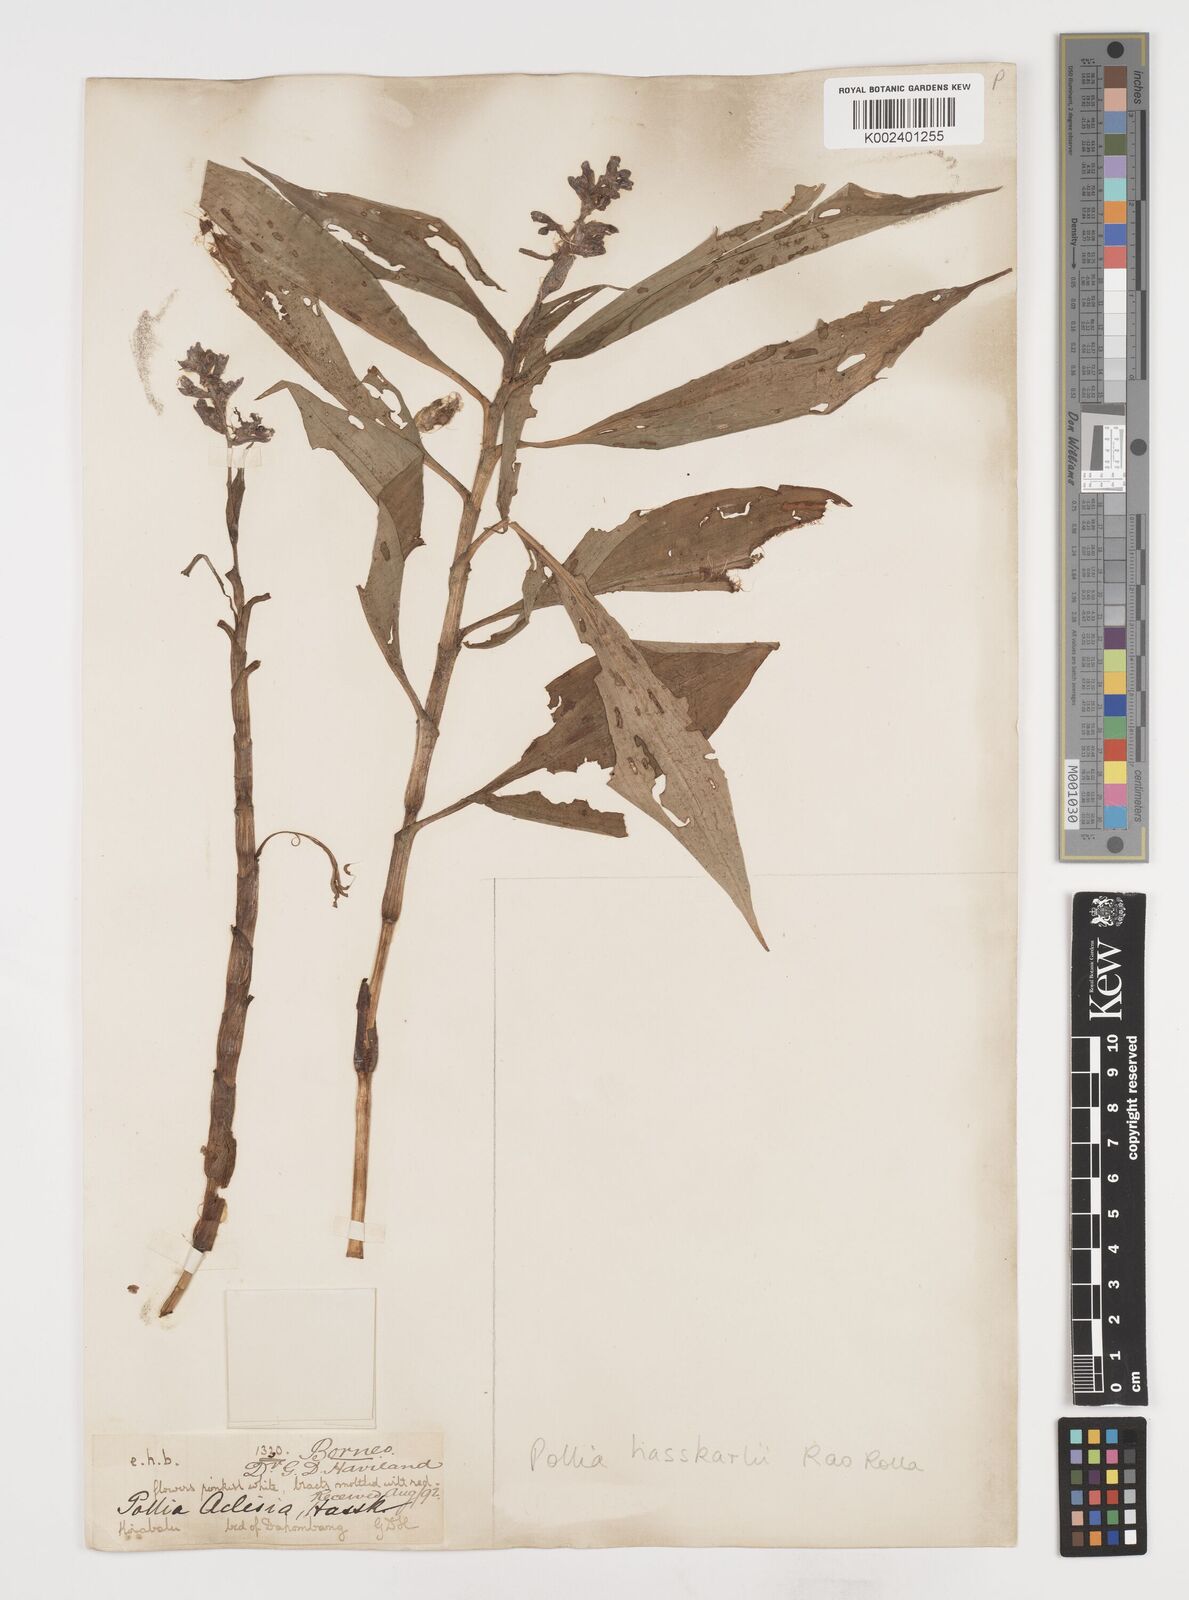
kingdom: Plantae
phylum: Tracheophyta
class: Liliopsida
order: Commelinales
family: Commelinaceae
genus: Pollia
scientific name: Pollia hasskarlii
